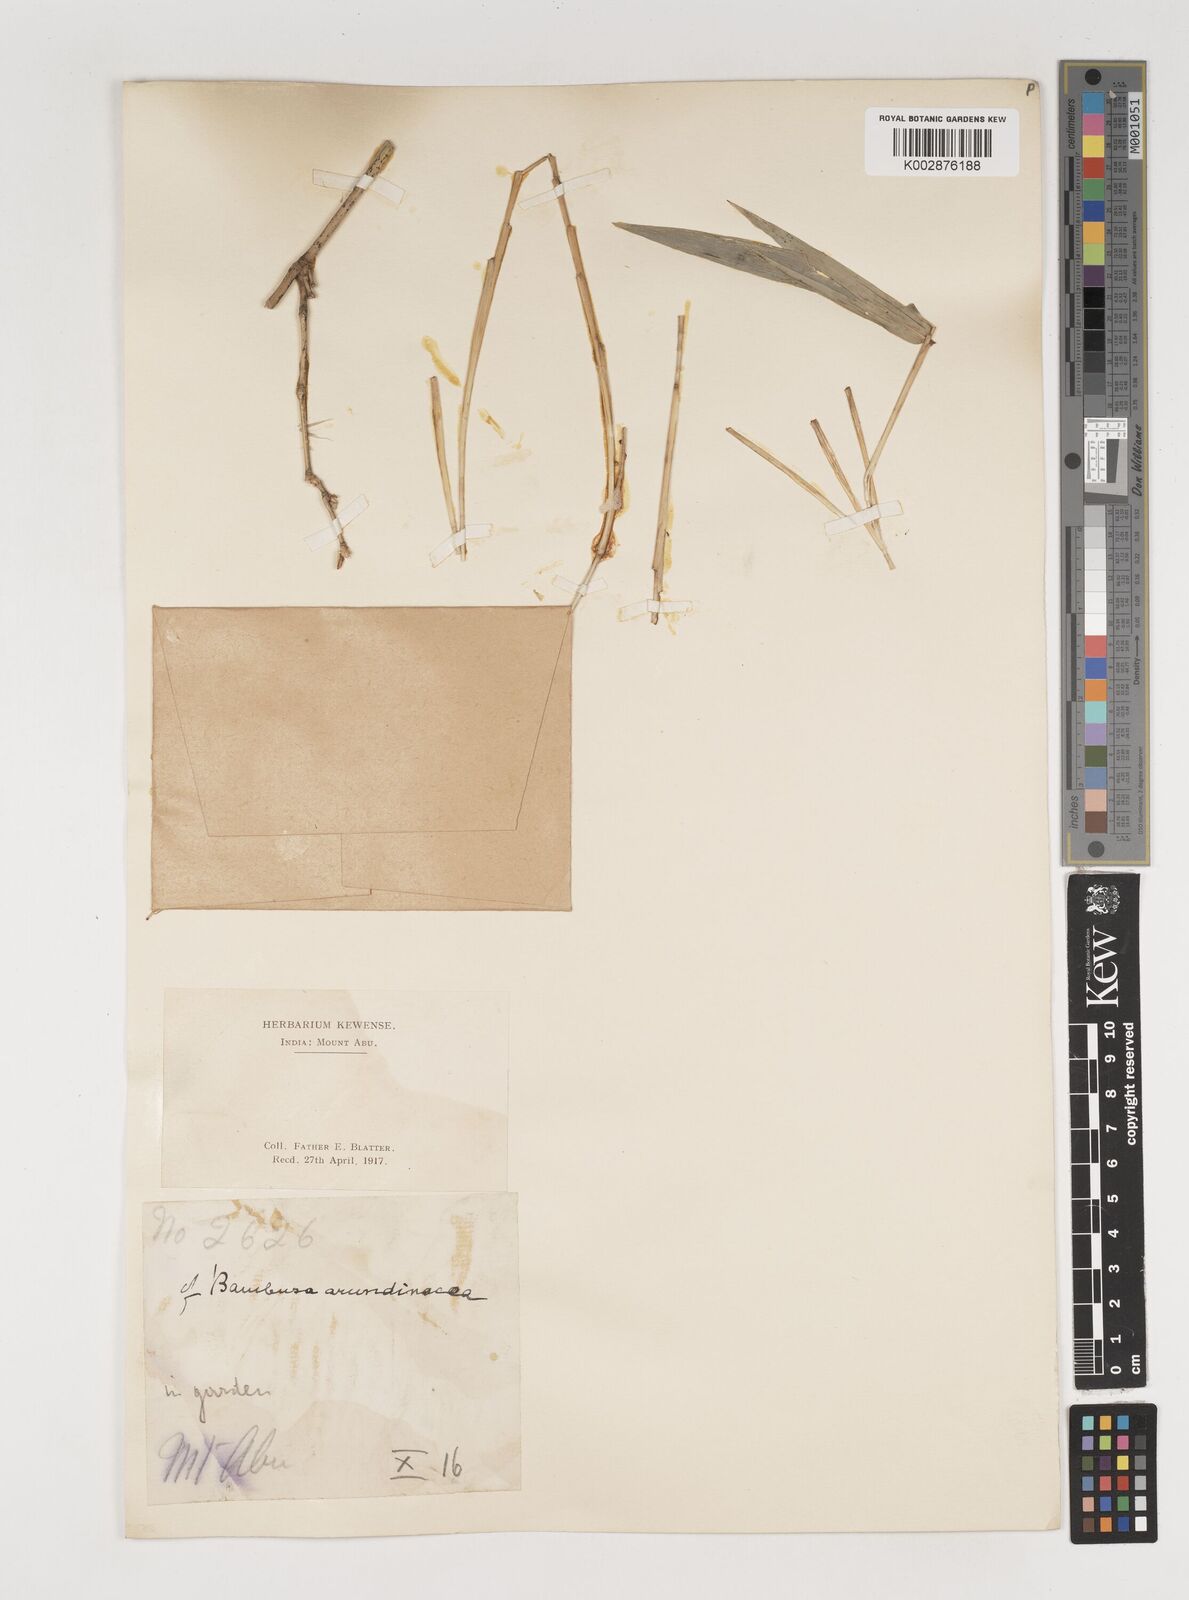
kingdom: Plantae
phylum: Tracheophyta
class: Liliopsida
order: Poales
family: Poaceae
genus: Bambusa
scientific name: Bambusa bambos
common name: Indian thorny bamboo
